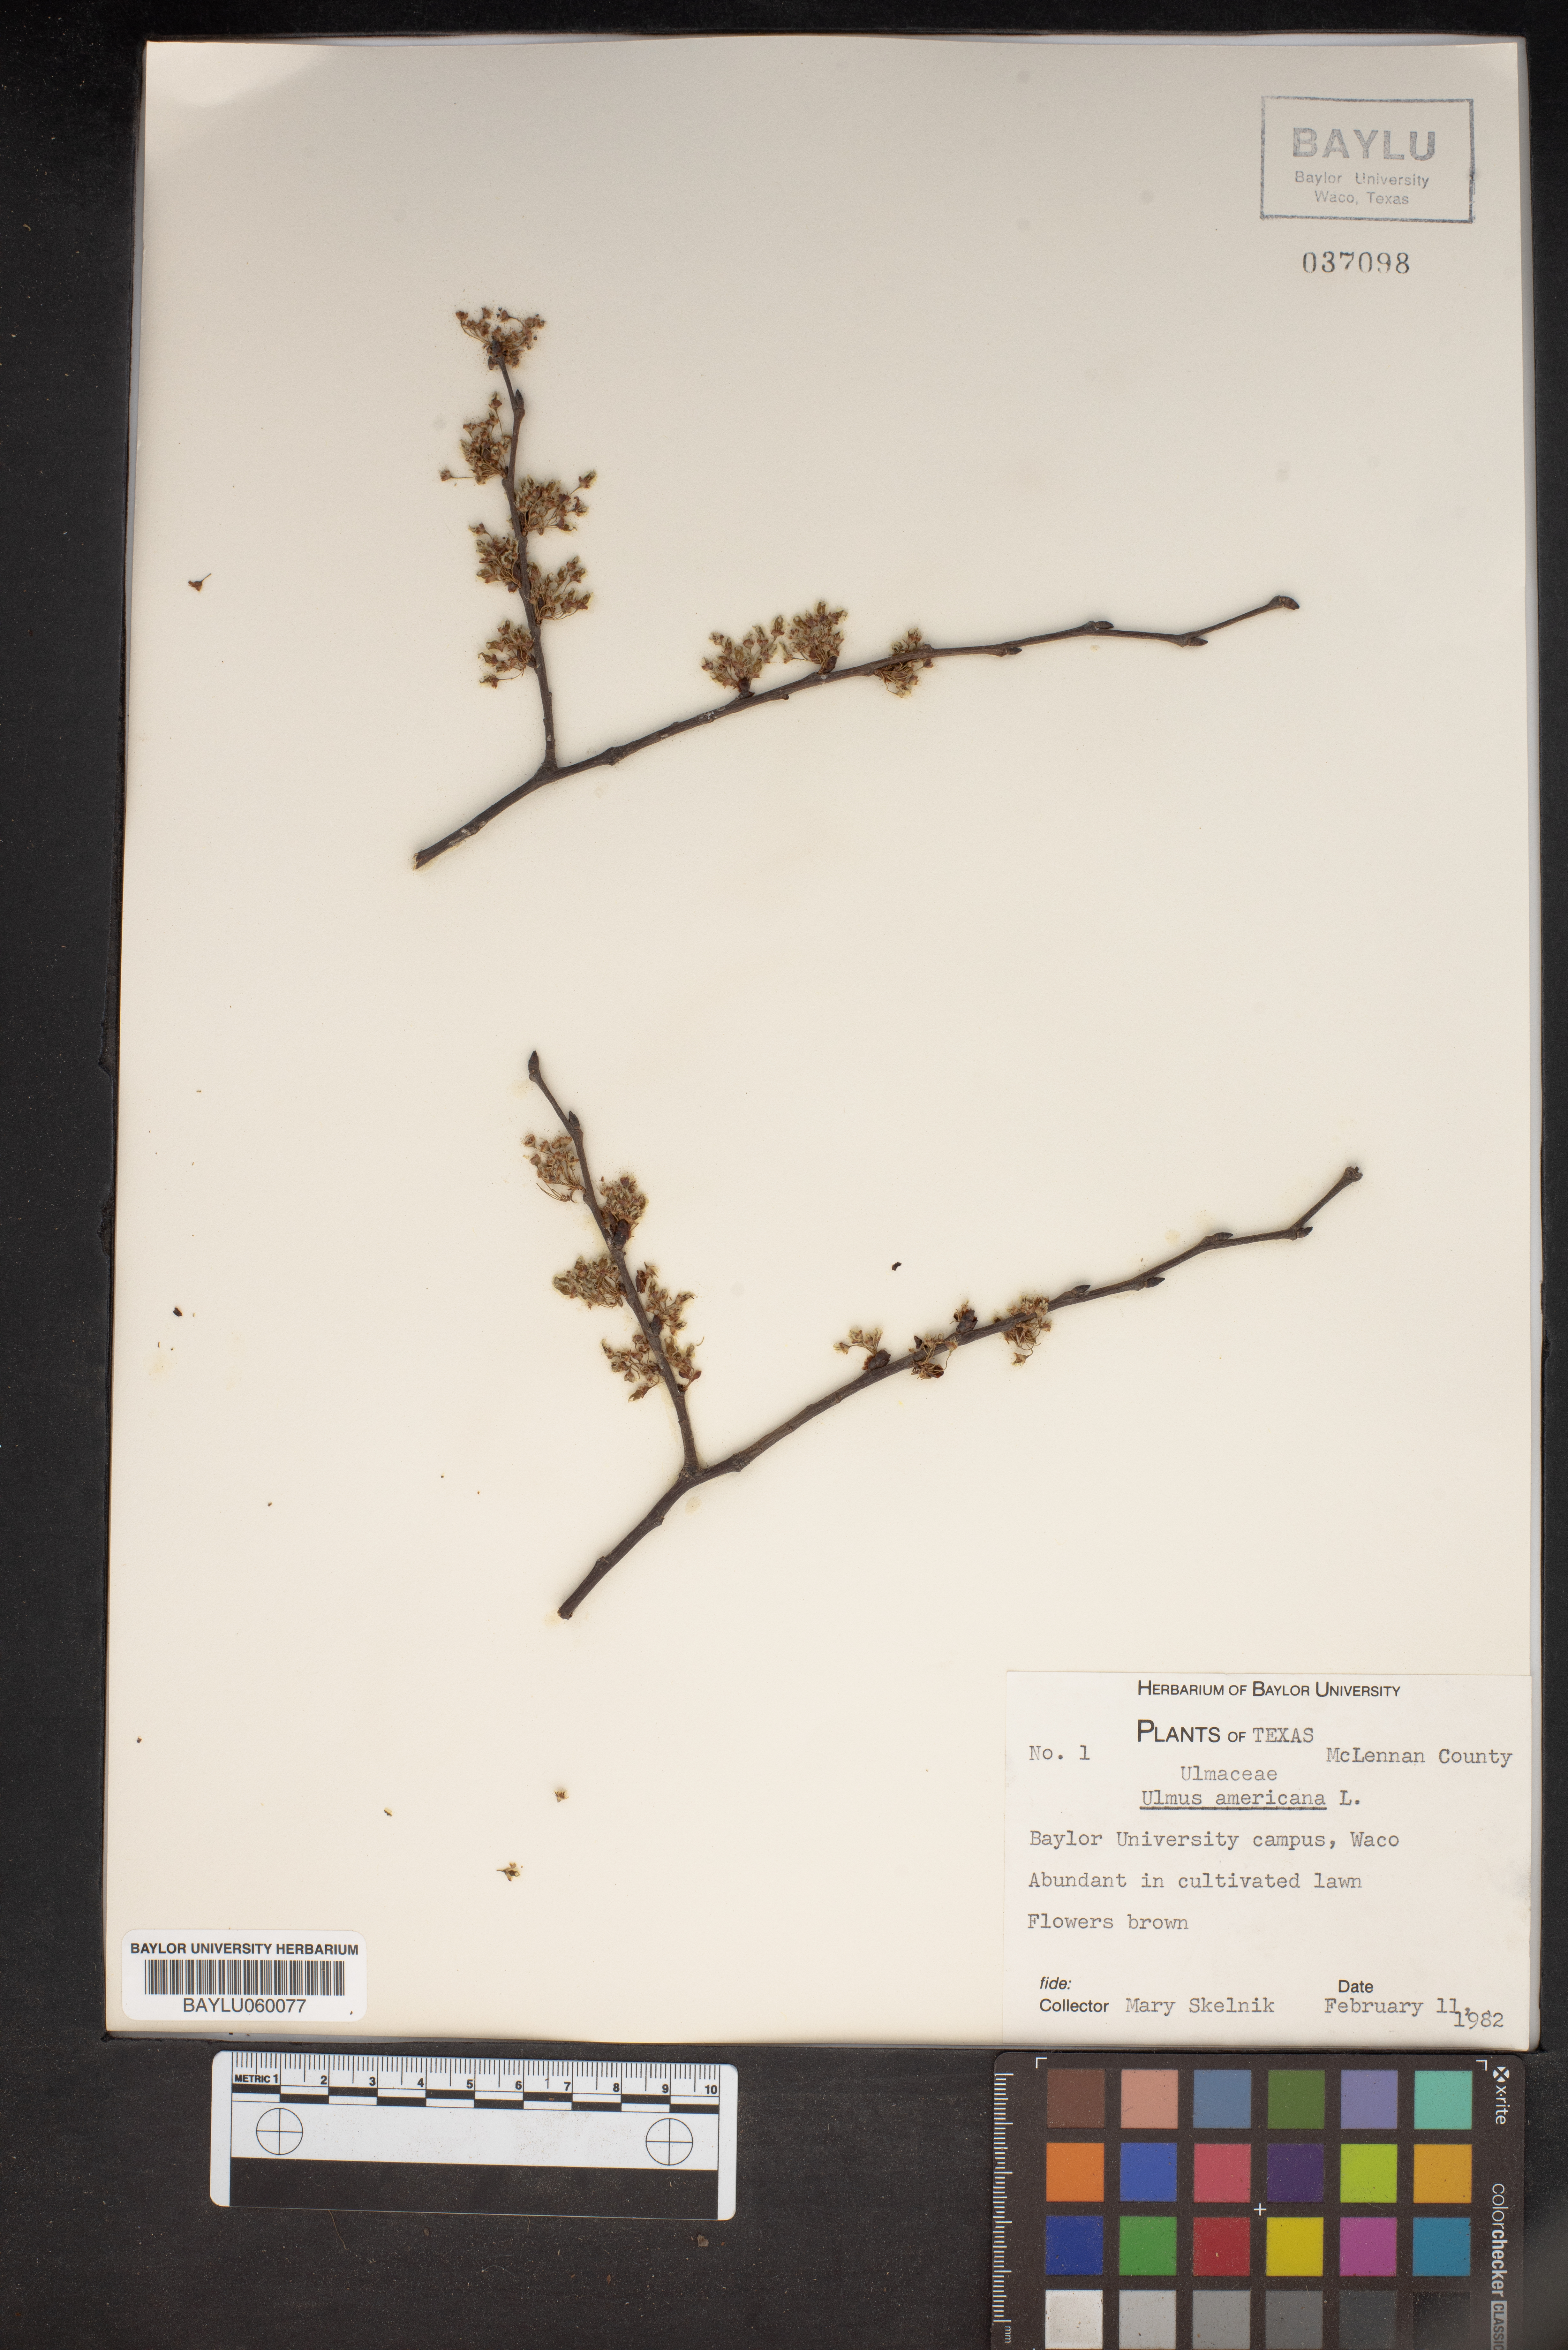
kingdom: Plantae
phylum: Tracheophyta
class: Magnoliopsida
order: Rosales
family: Ulmaceae
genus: Ulmus
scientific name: Ulmus americana
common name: American elm
